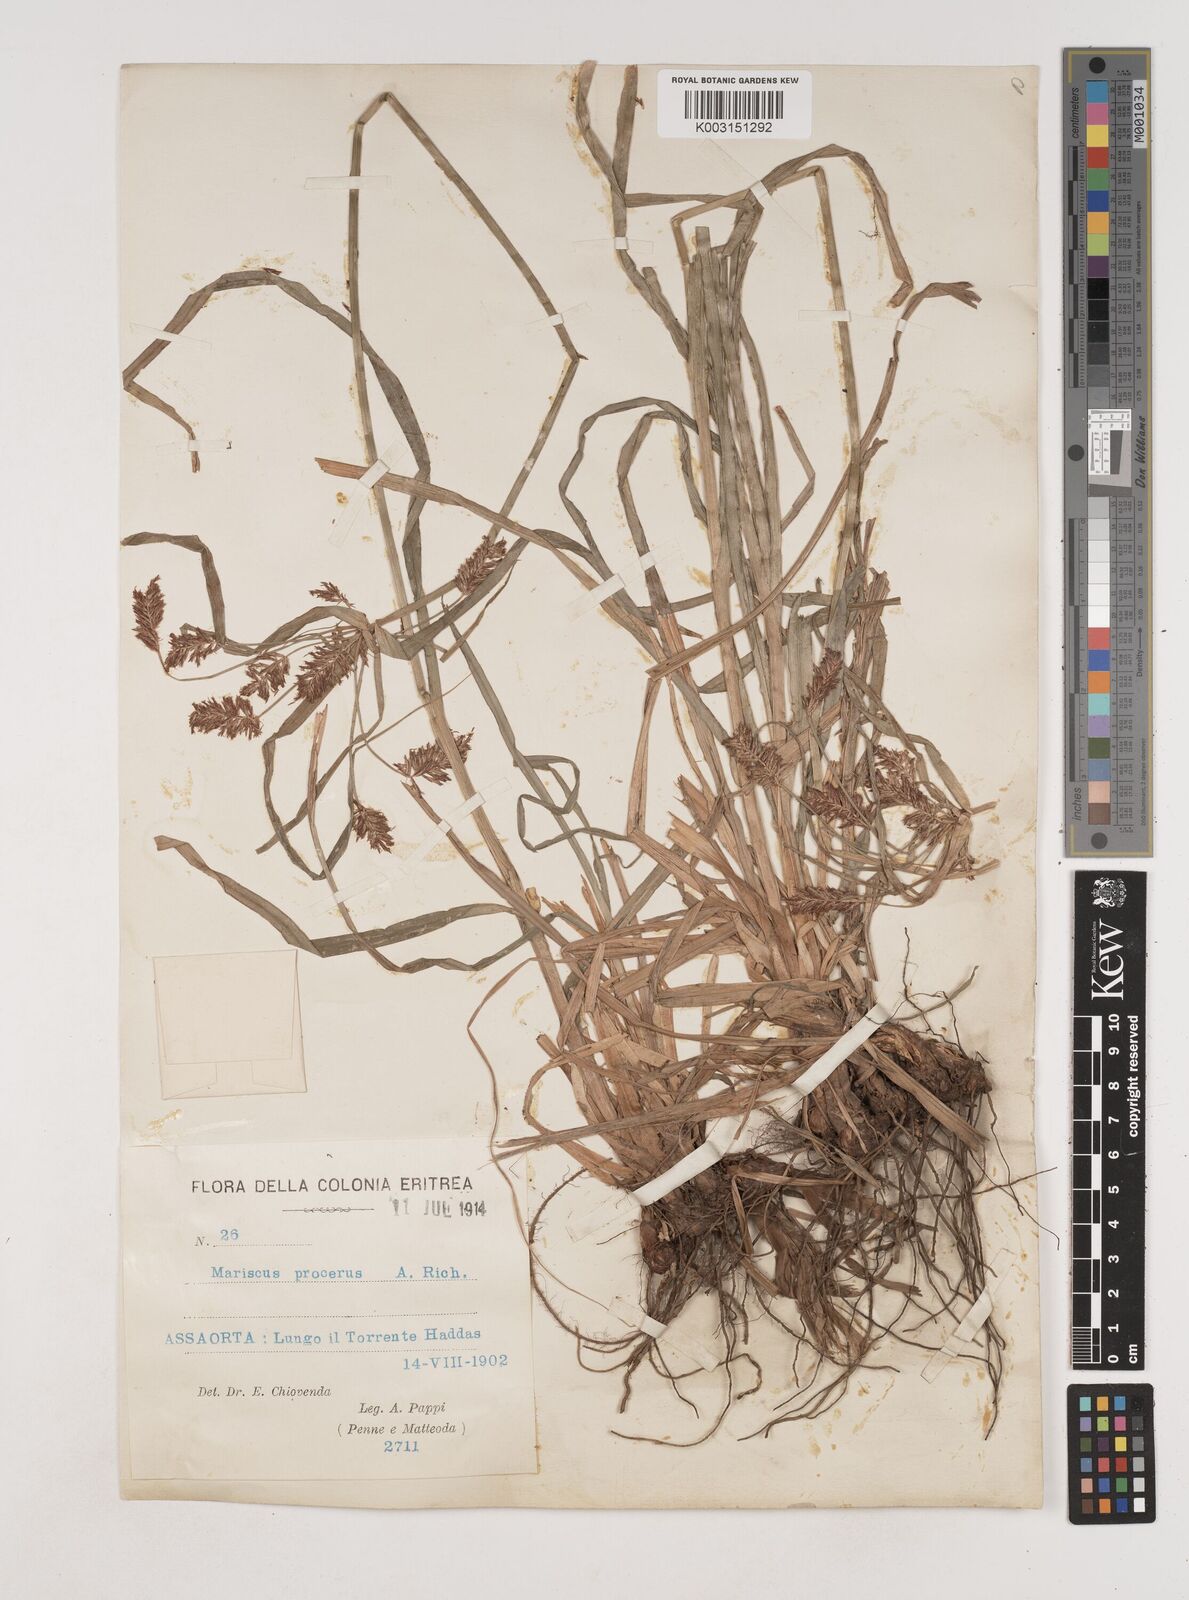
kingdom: Plantae
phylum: Tracheophyta
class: Liliopsida
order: Poales
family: Cyperaceae
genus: Cyperus
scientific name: Cyperus impubes
